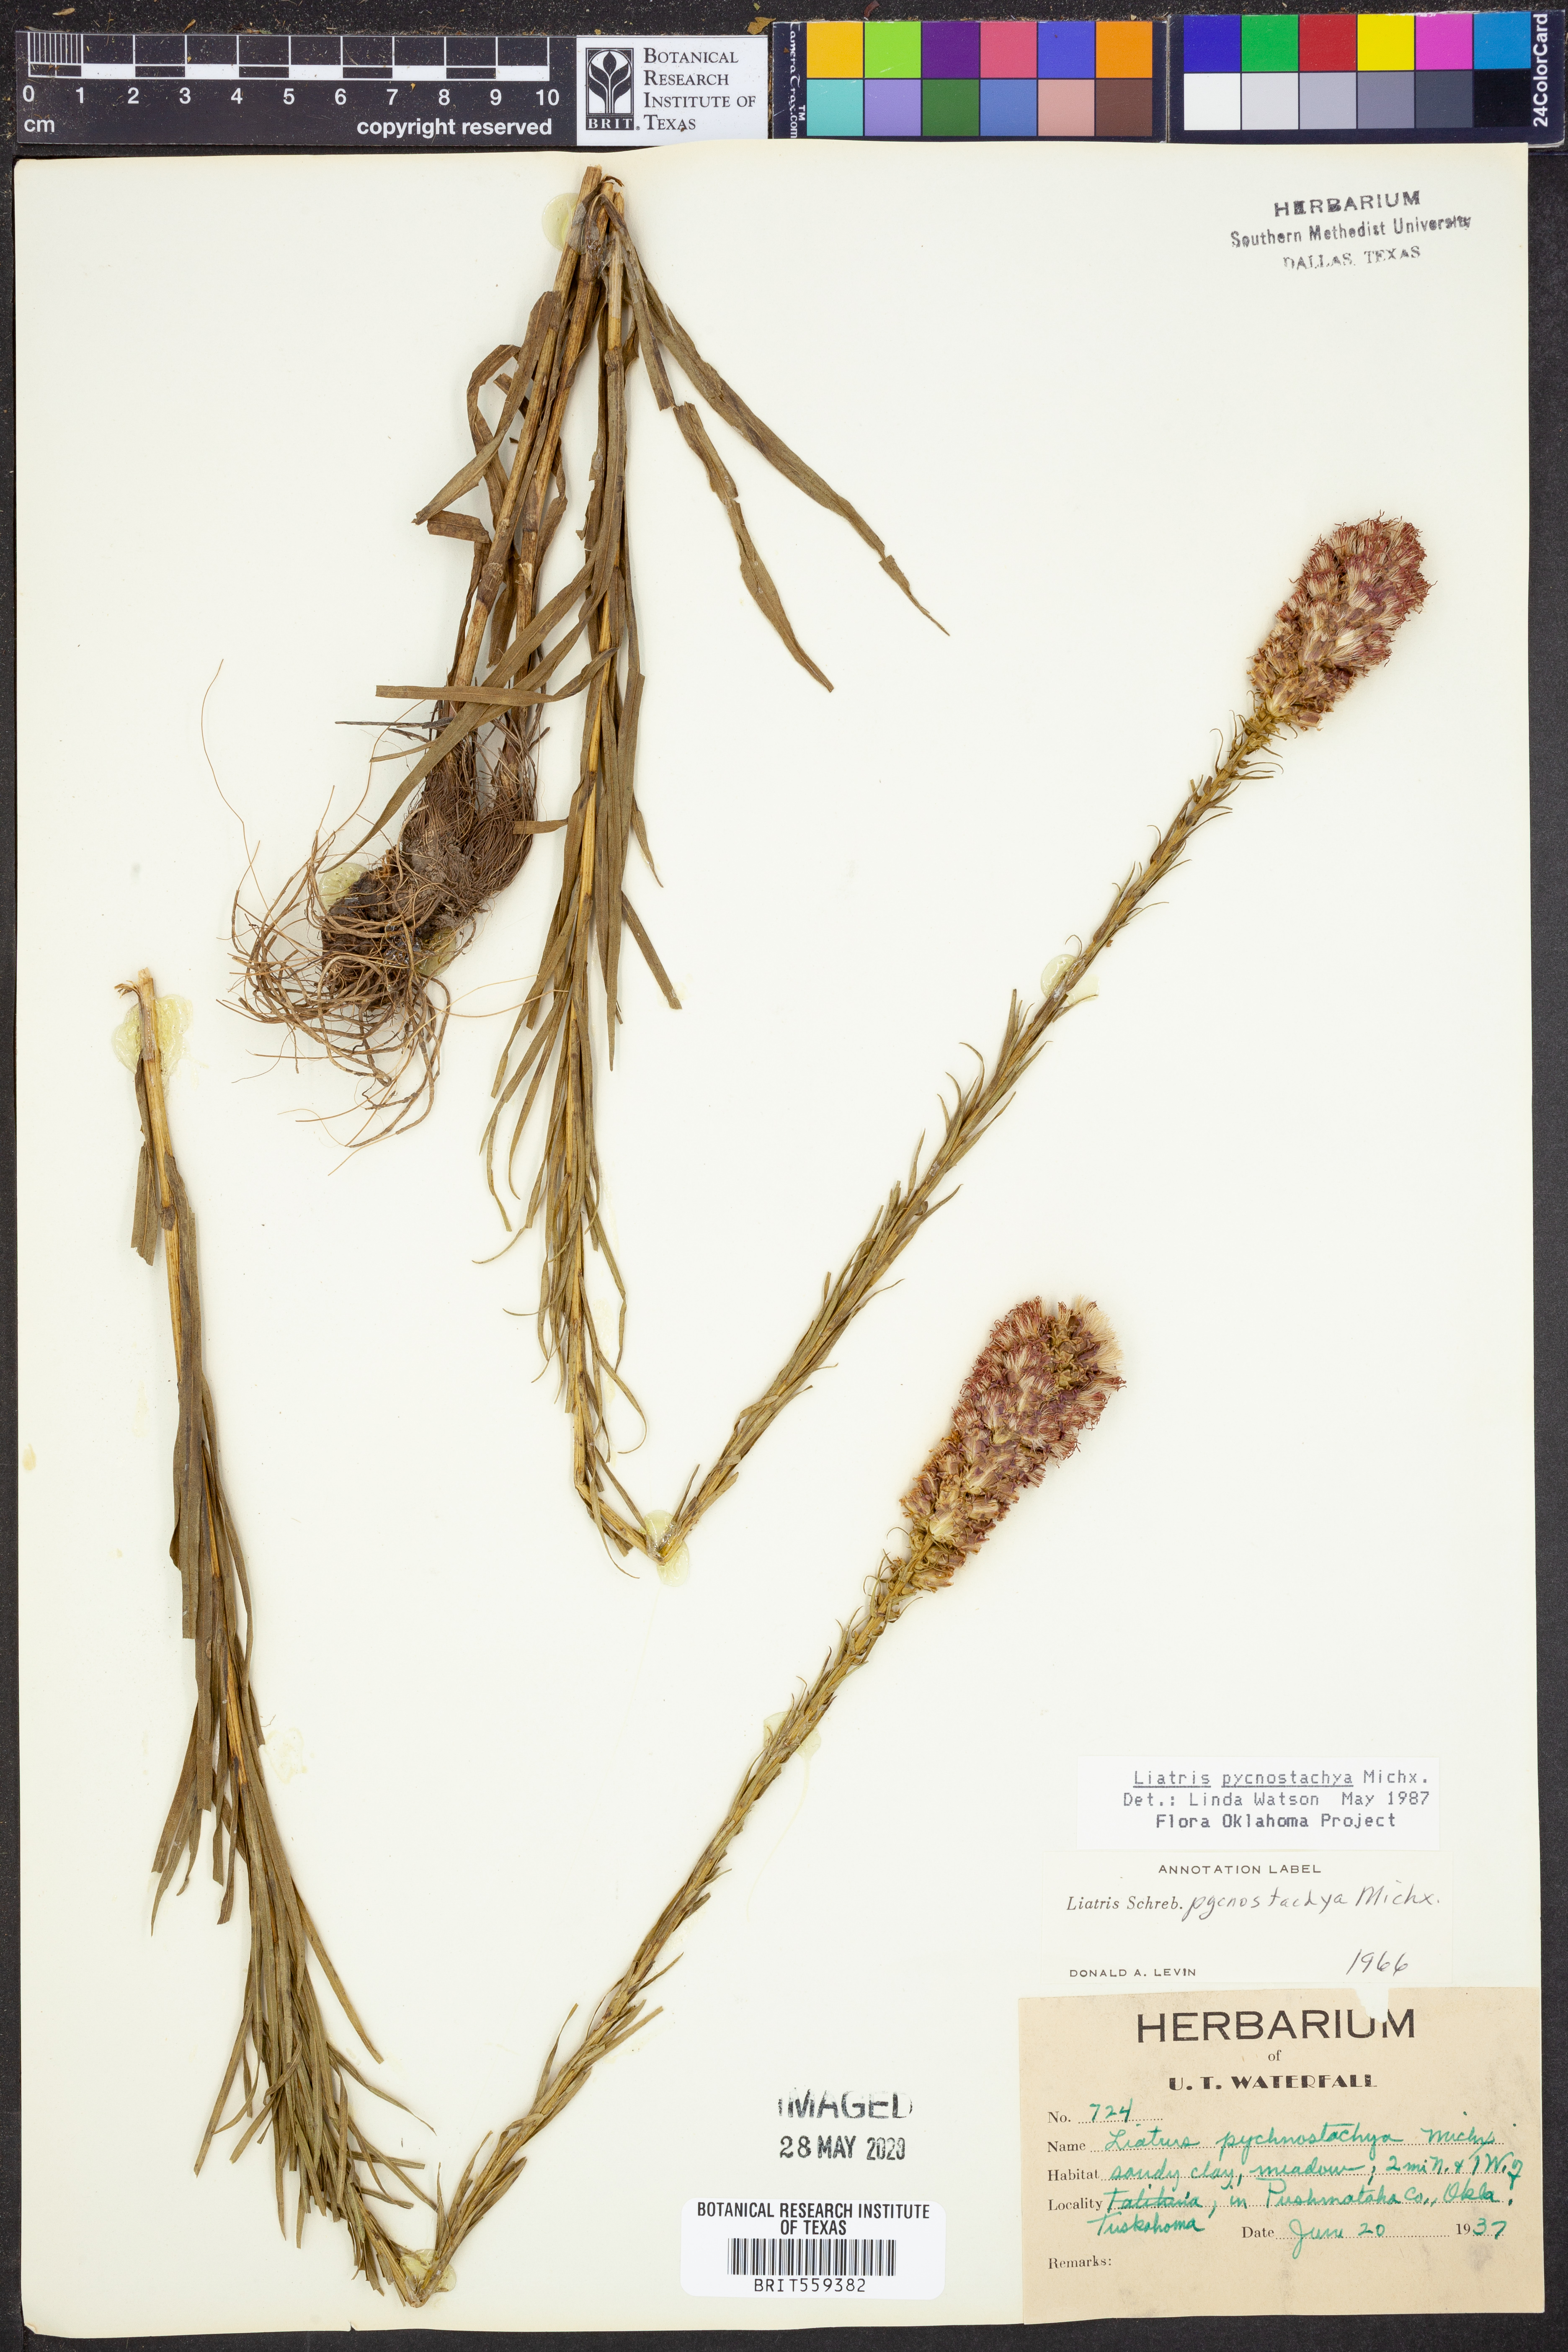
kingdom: Plantae
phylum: Tracheophyta
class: Magnoliopsida
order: Asterales
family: Asteraceae
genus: Liatris
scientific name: Liatris pycnostachya
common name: Cattail gayfeather
